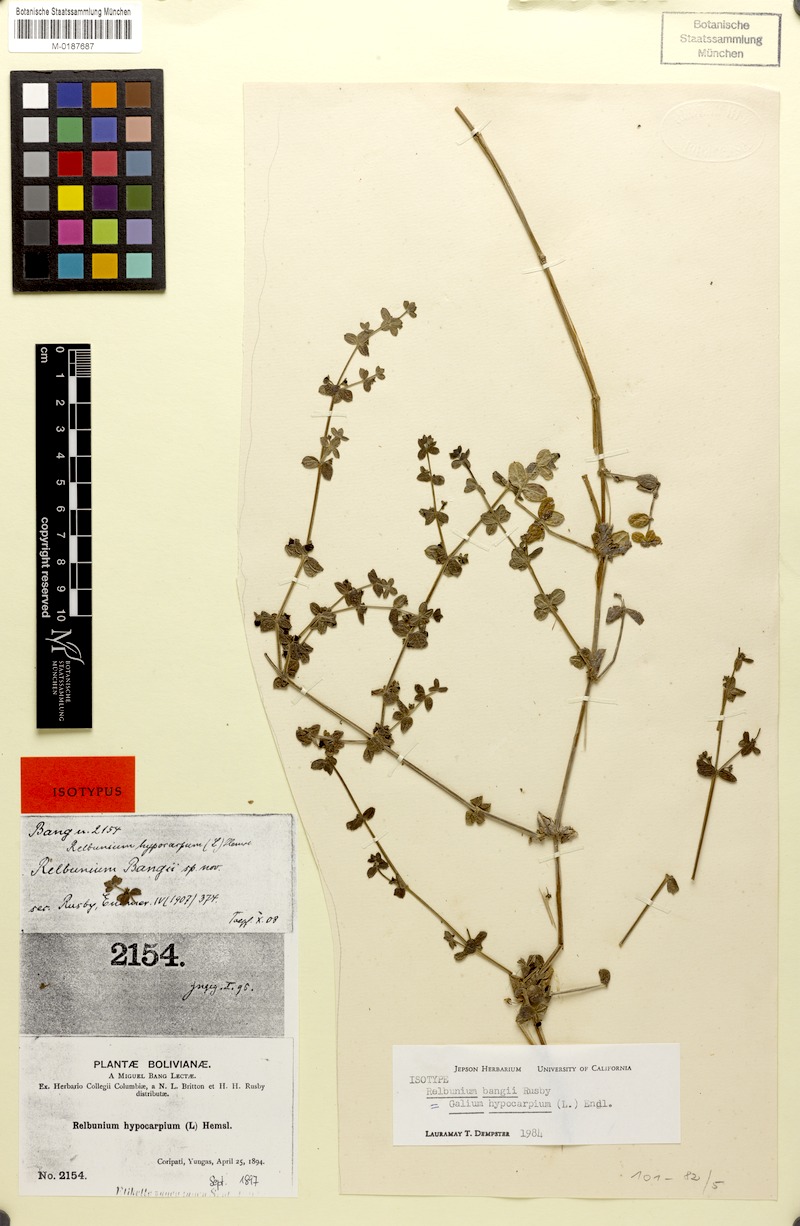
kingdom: Plantae
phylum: Tracheophyta
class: Magnoliopsida
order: Gentianales
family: Rubiaceae
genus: Galium
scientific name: Galium hypocarpium
